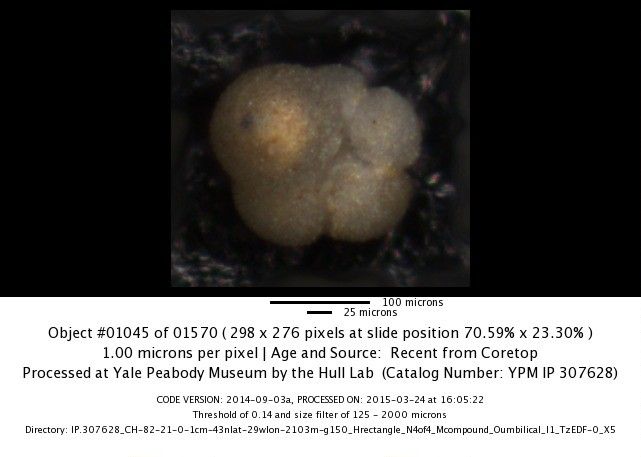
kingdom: Chromista
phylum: Foraminifera
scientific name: Foraminifera
